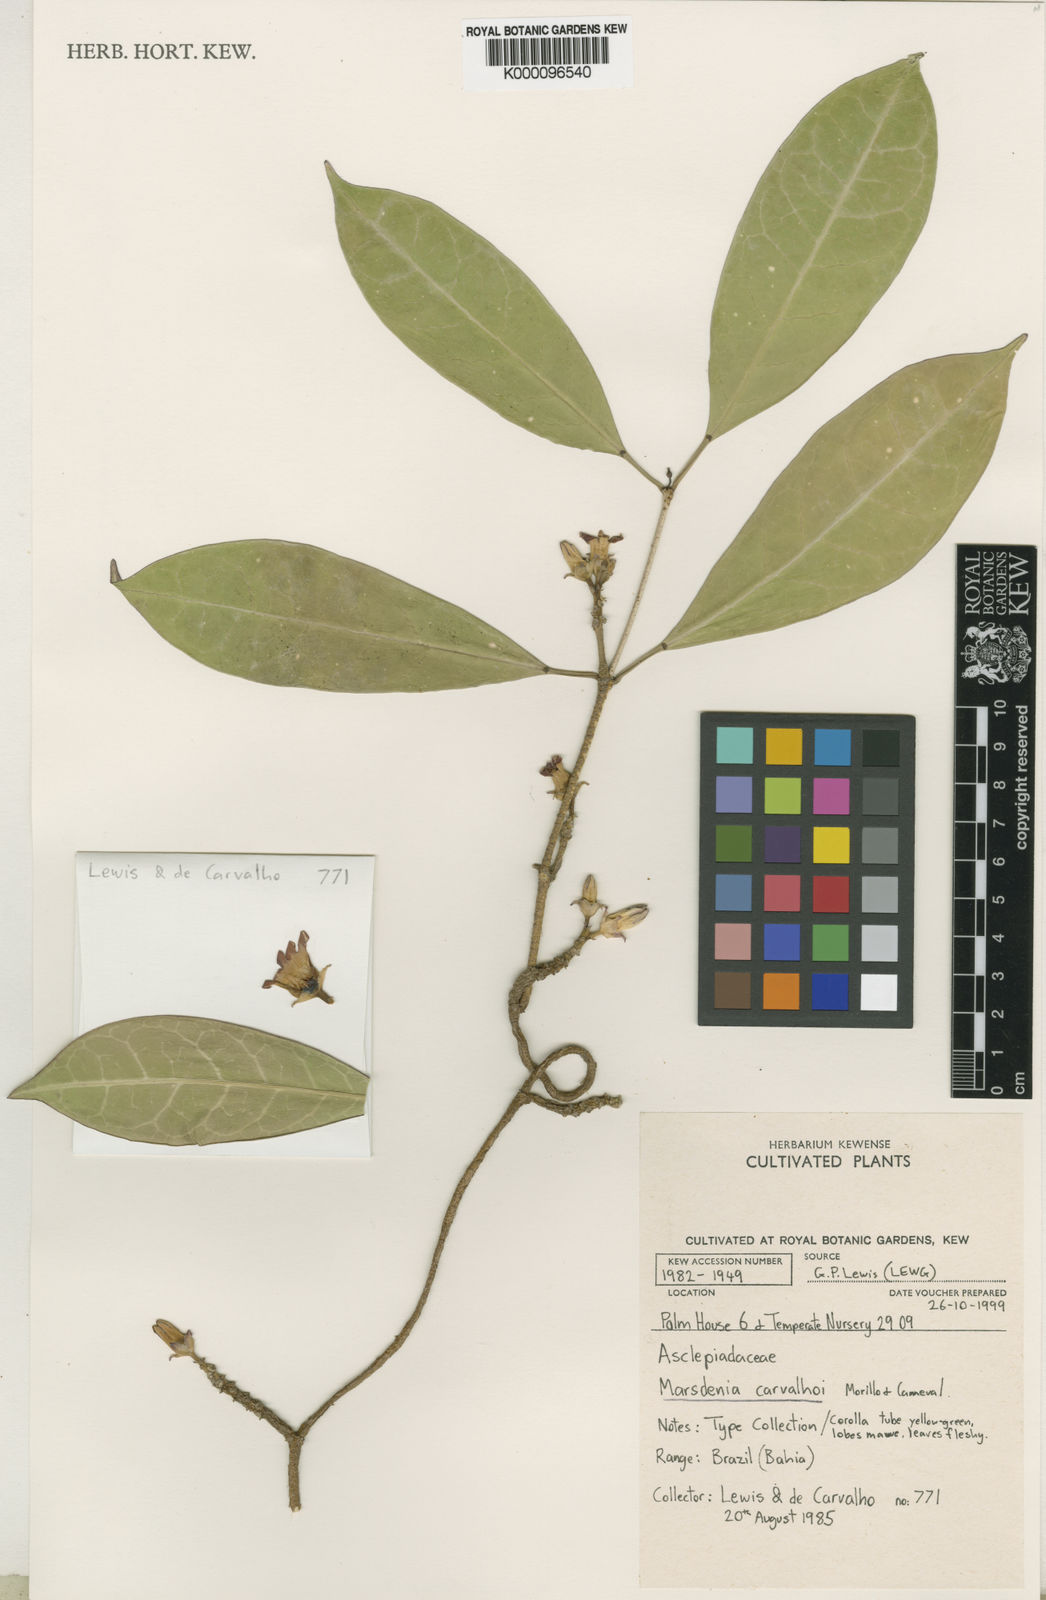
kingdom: Plantae
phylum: Tracheophyta
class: Magnoliopsida
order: Gentianales
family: Apocynaceae
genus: Ruehssia
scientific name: Ruehssia carvalhoi
